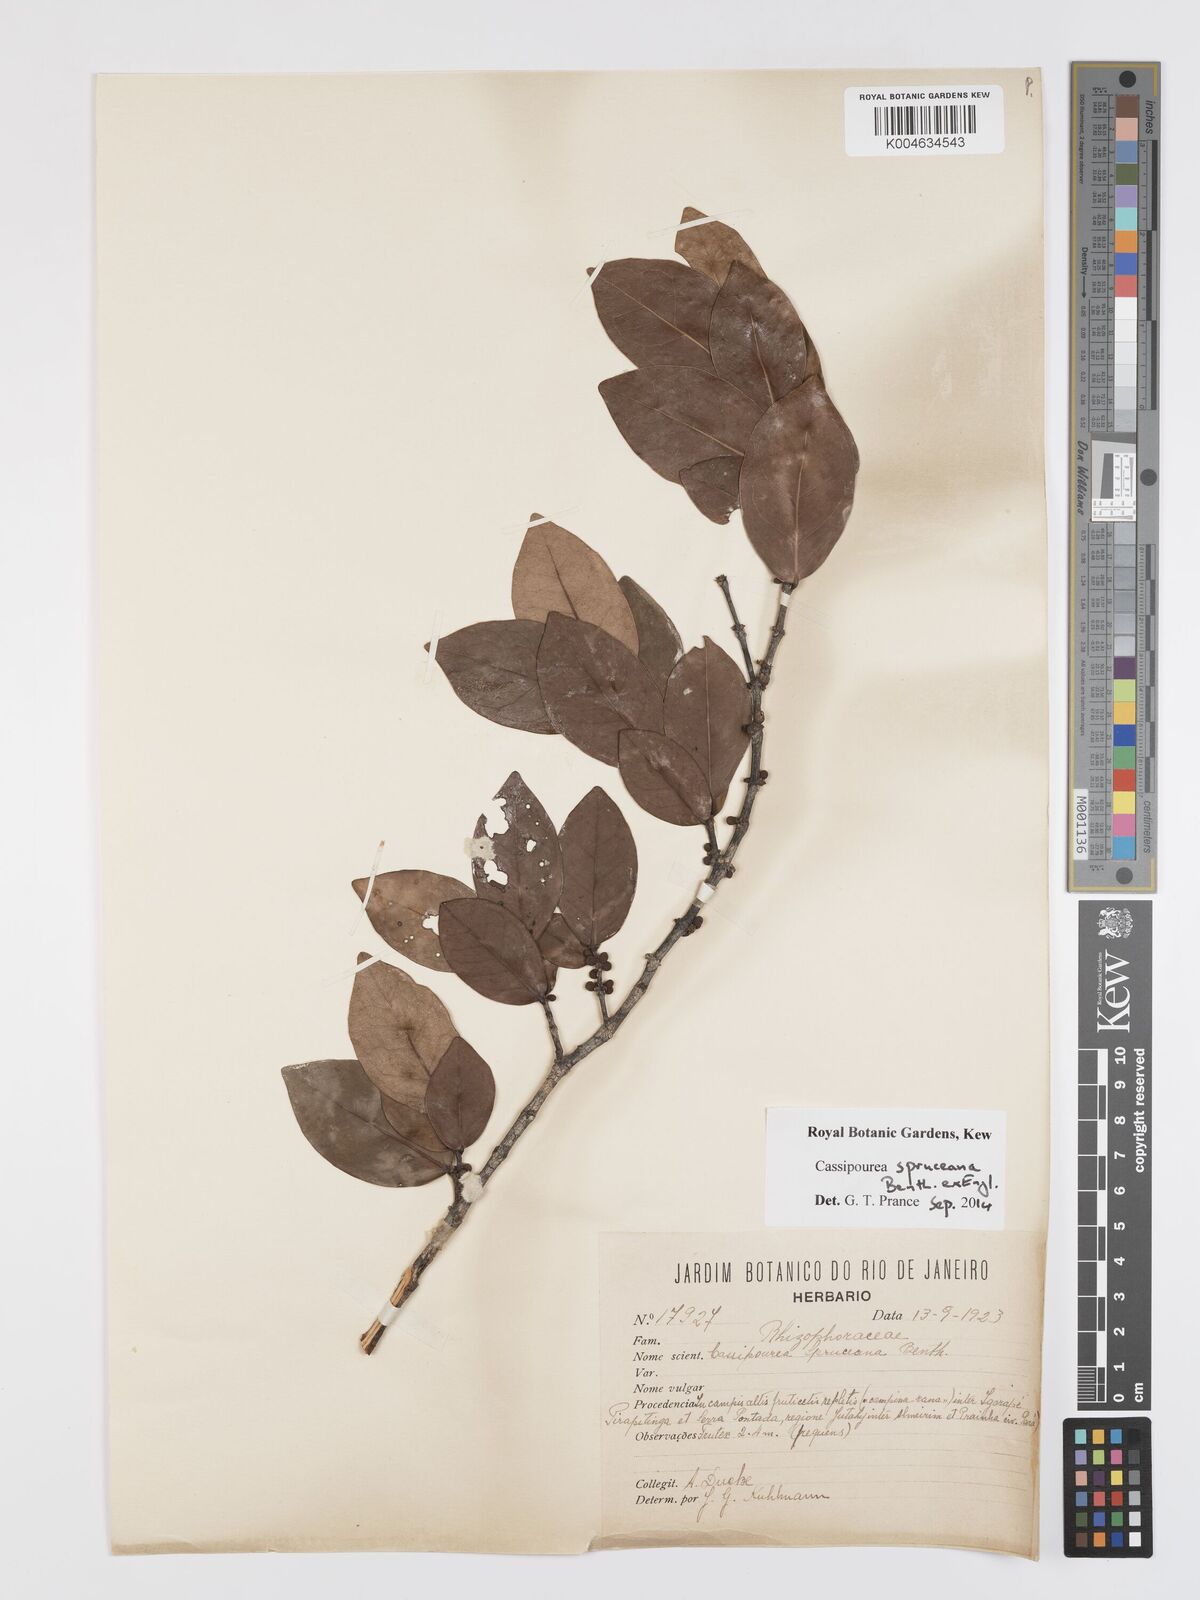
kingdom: Plantae
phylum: Tracheophyta
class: Magnoliopsida
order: Malpighiales
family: Rhizophoraceae
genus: Cassipourea
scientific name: Cassipourea spruceana
